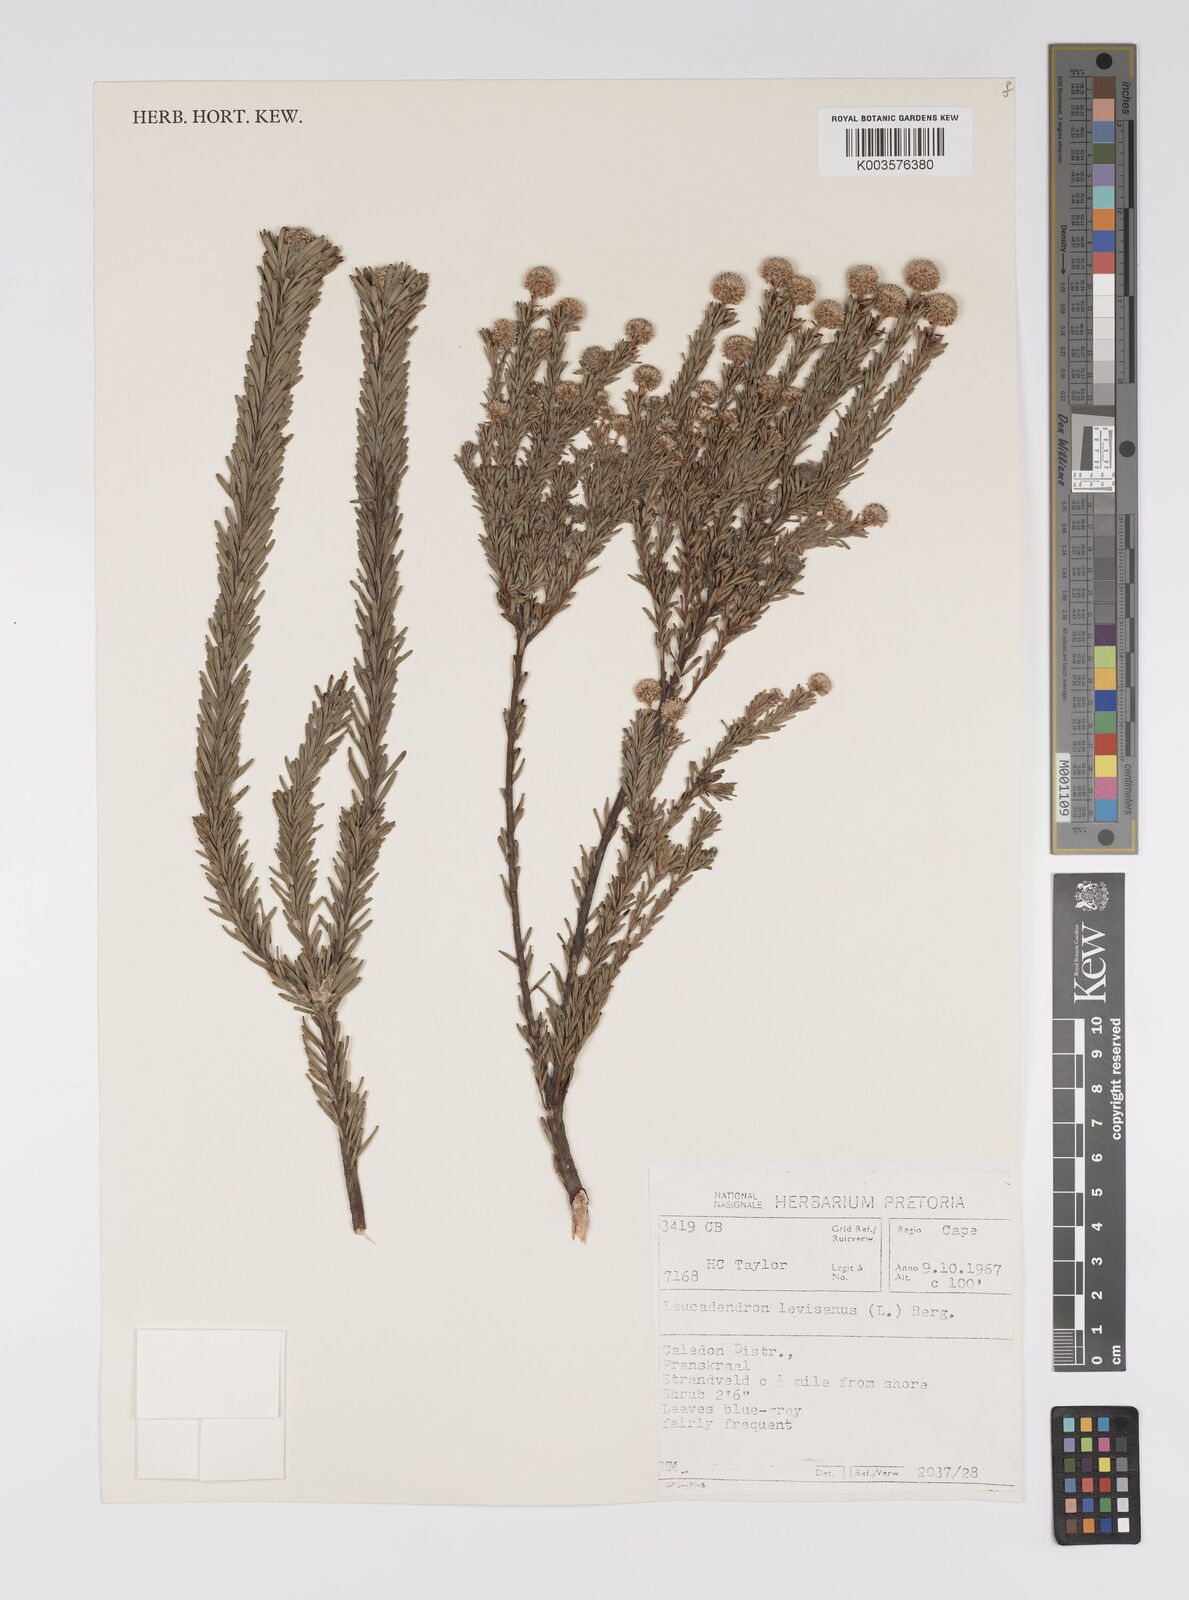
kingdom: Plantae
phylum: Tracheophyta
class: Magnoliopsida
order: Proteales
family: Proteaceae
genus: Leucadendron
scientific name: Leucadendron levisanus
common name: Cape flats conebush
